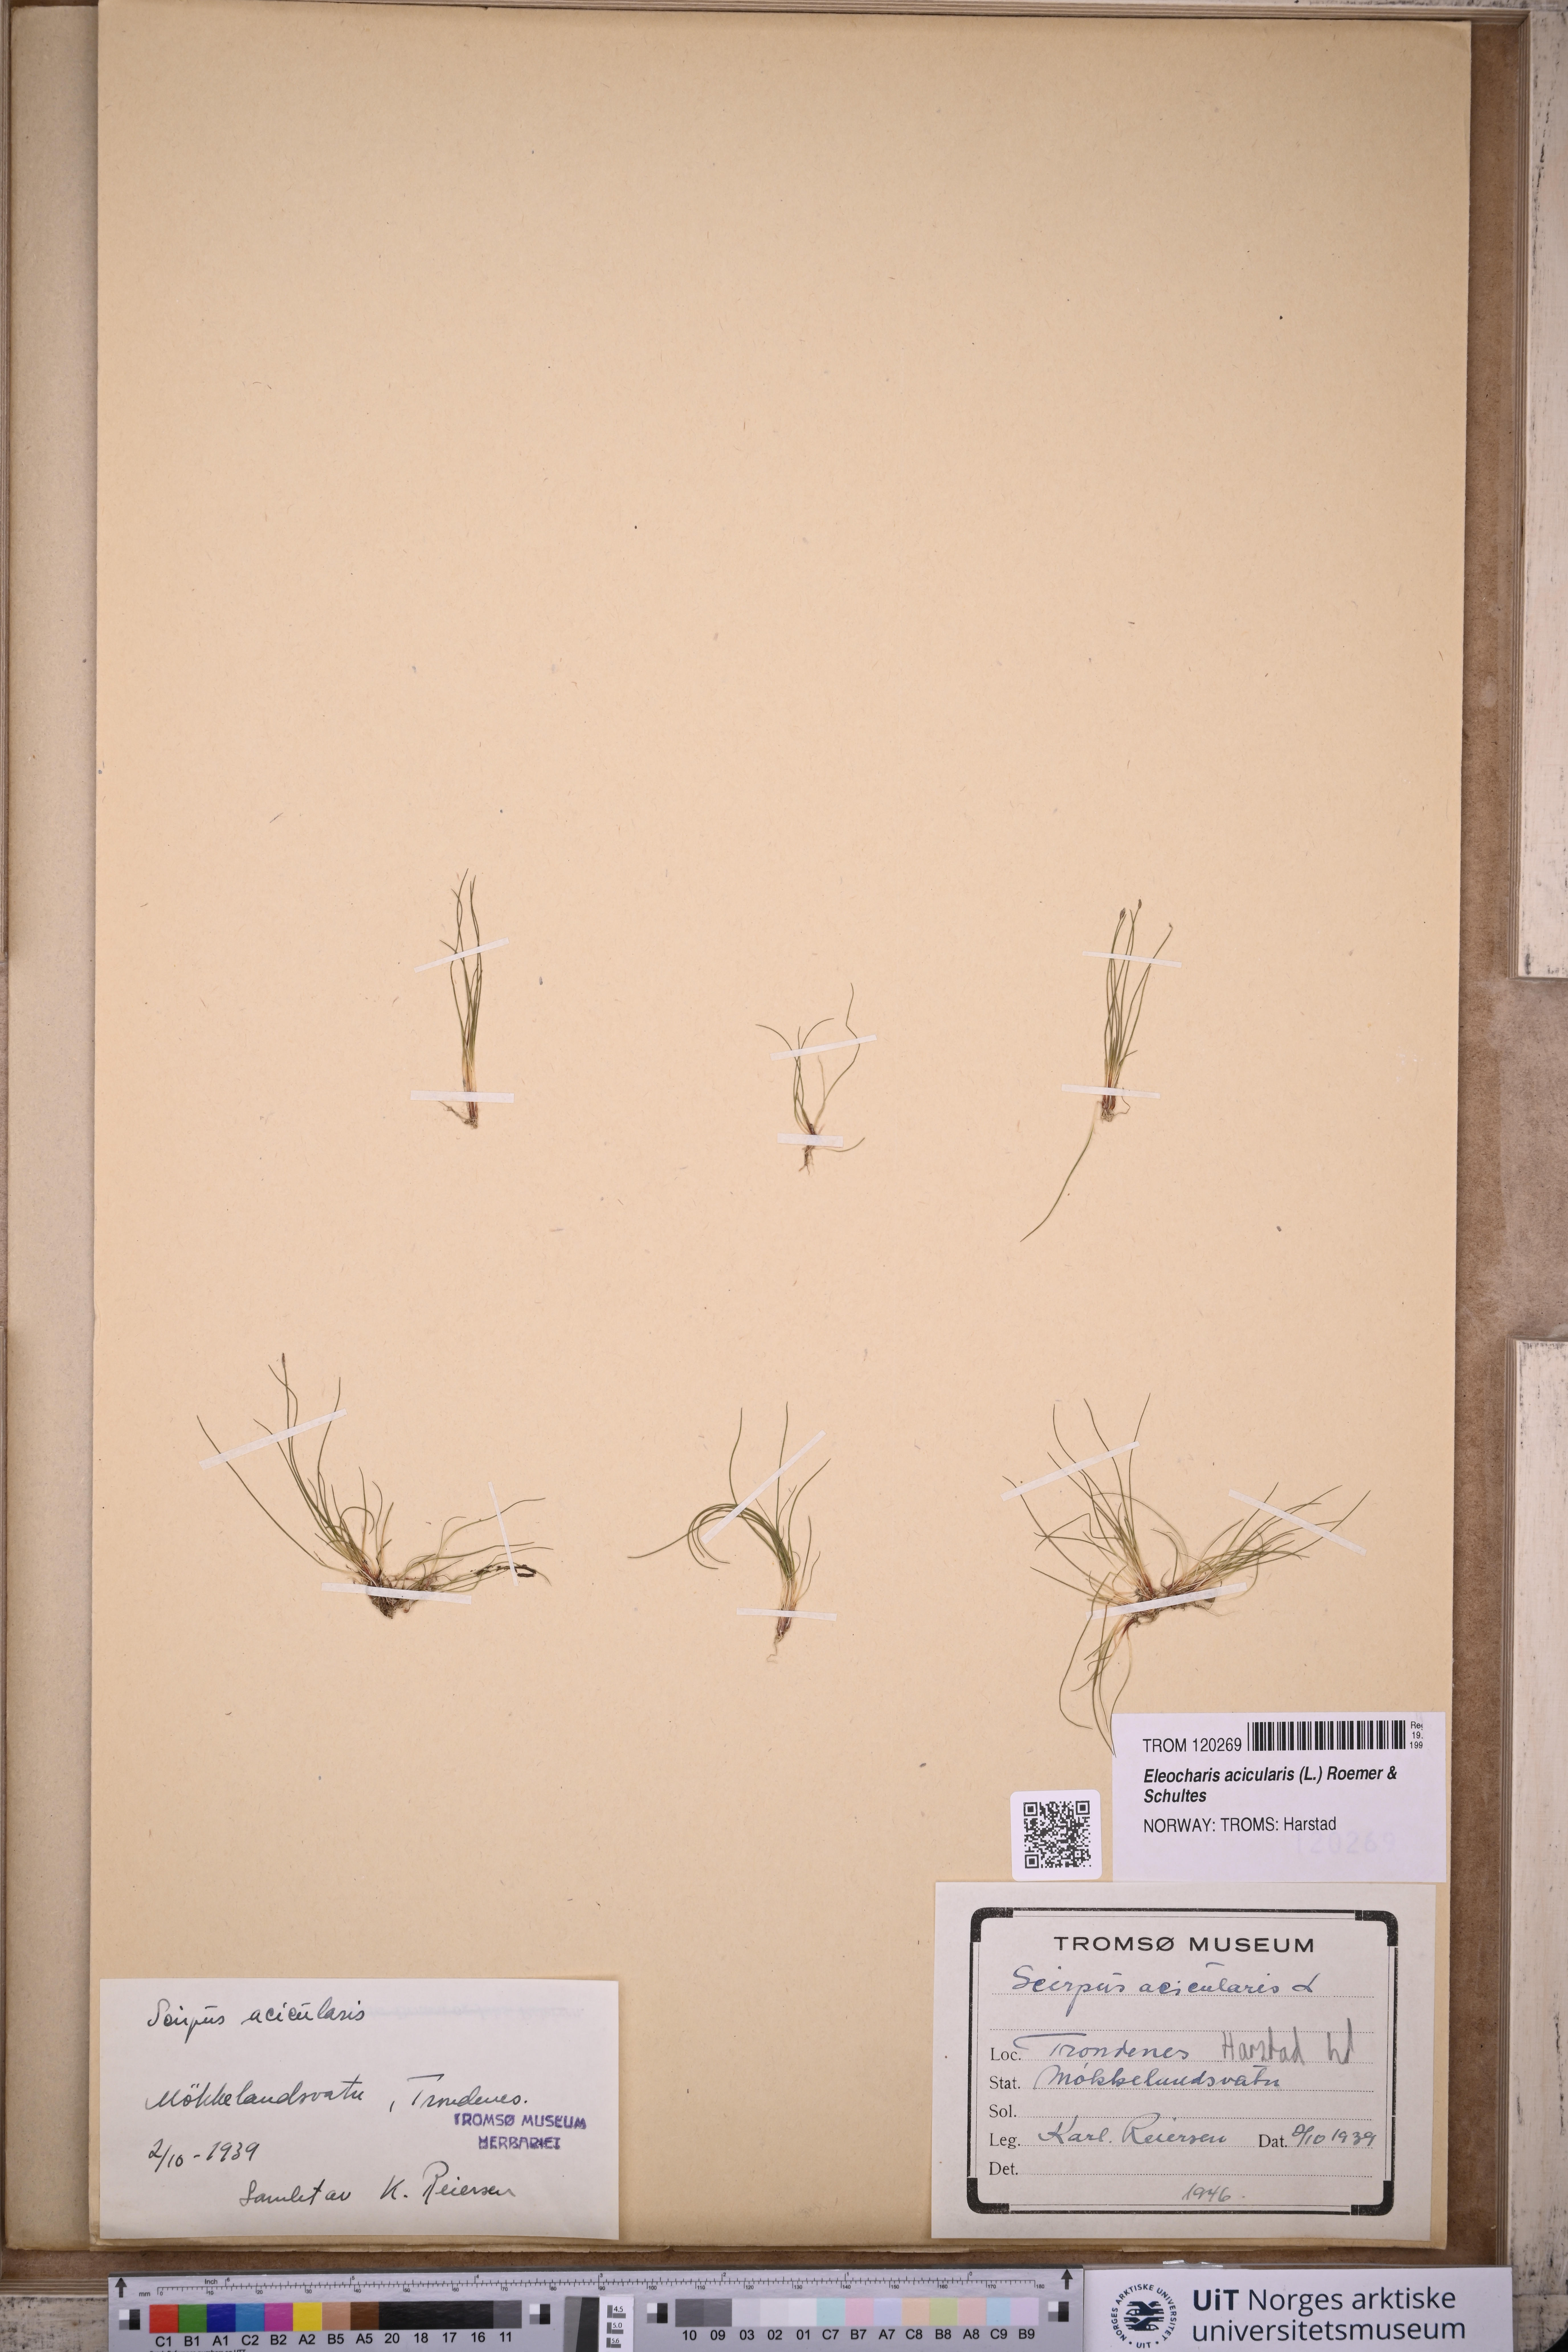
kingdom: Plantae
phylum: Tracheophyta
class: Liliopsida
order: Poales
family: Cyperaceae
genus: Eleocharis
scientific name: Eleocharis acicularis
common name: Needle spike-rush
